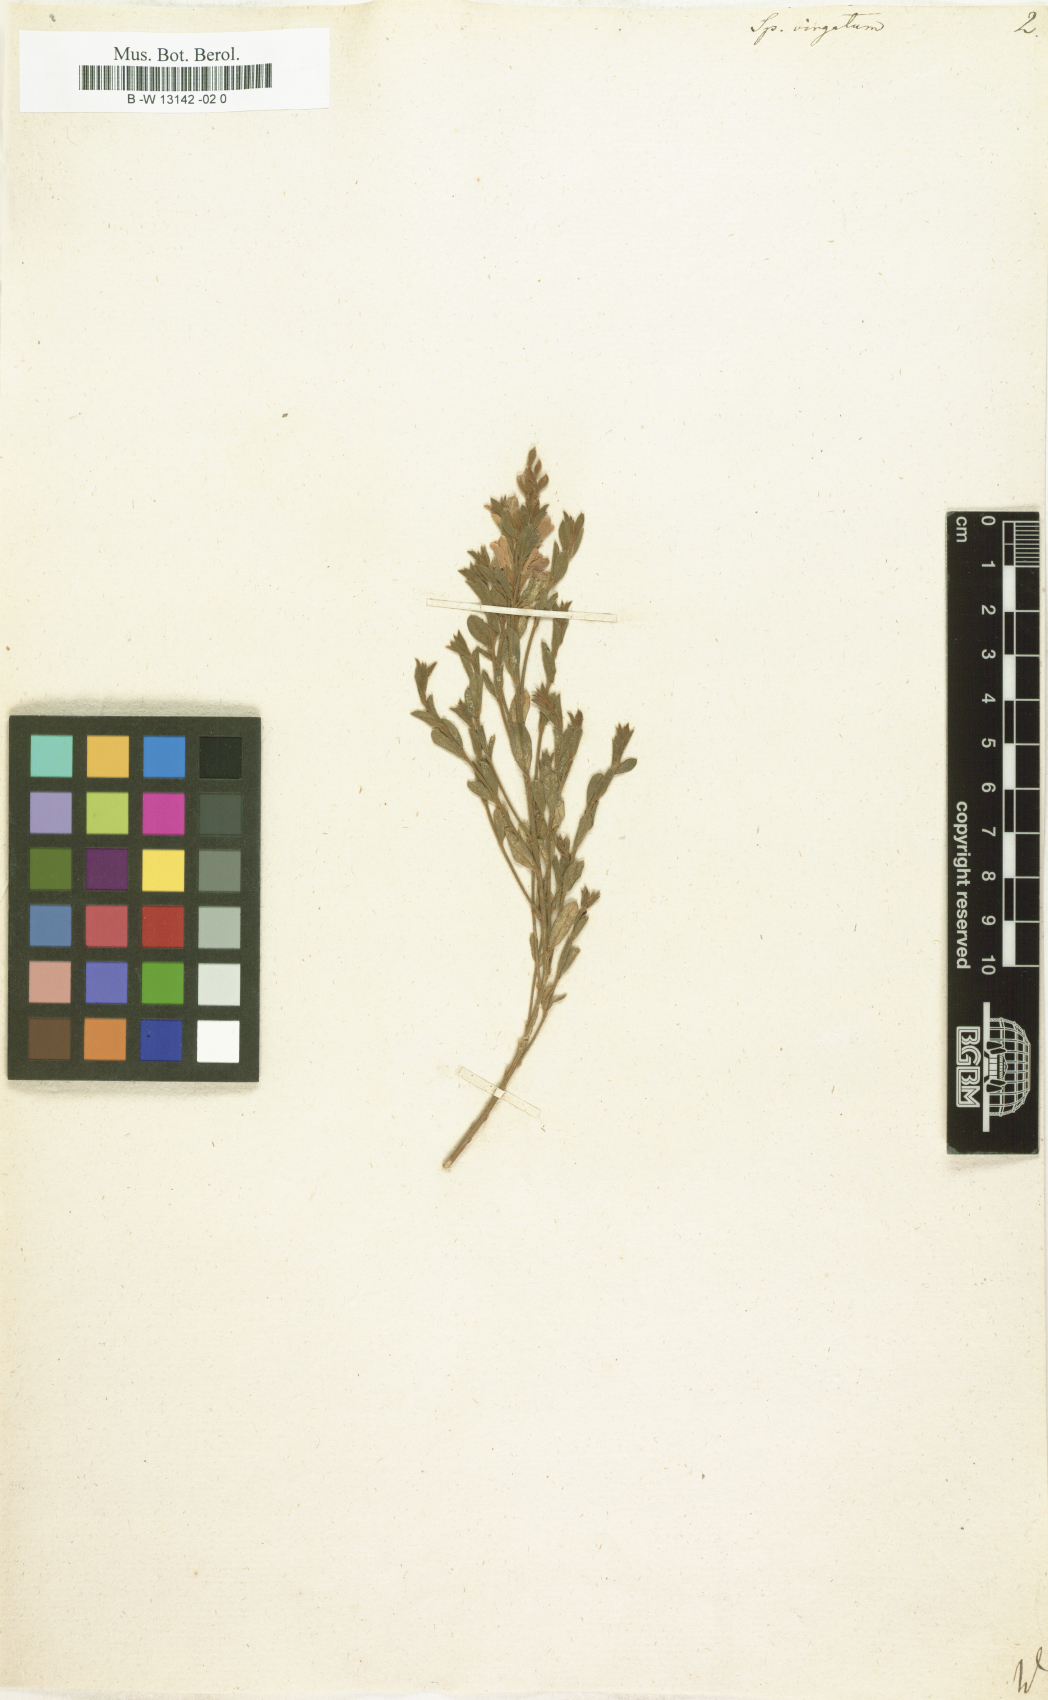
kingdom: Plantae
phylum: Tracheophyta
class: Magnoliopsida
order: Fabales
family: Fabaceae
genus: Genista
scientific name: Genista tenera
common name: Madeira broom
